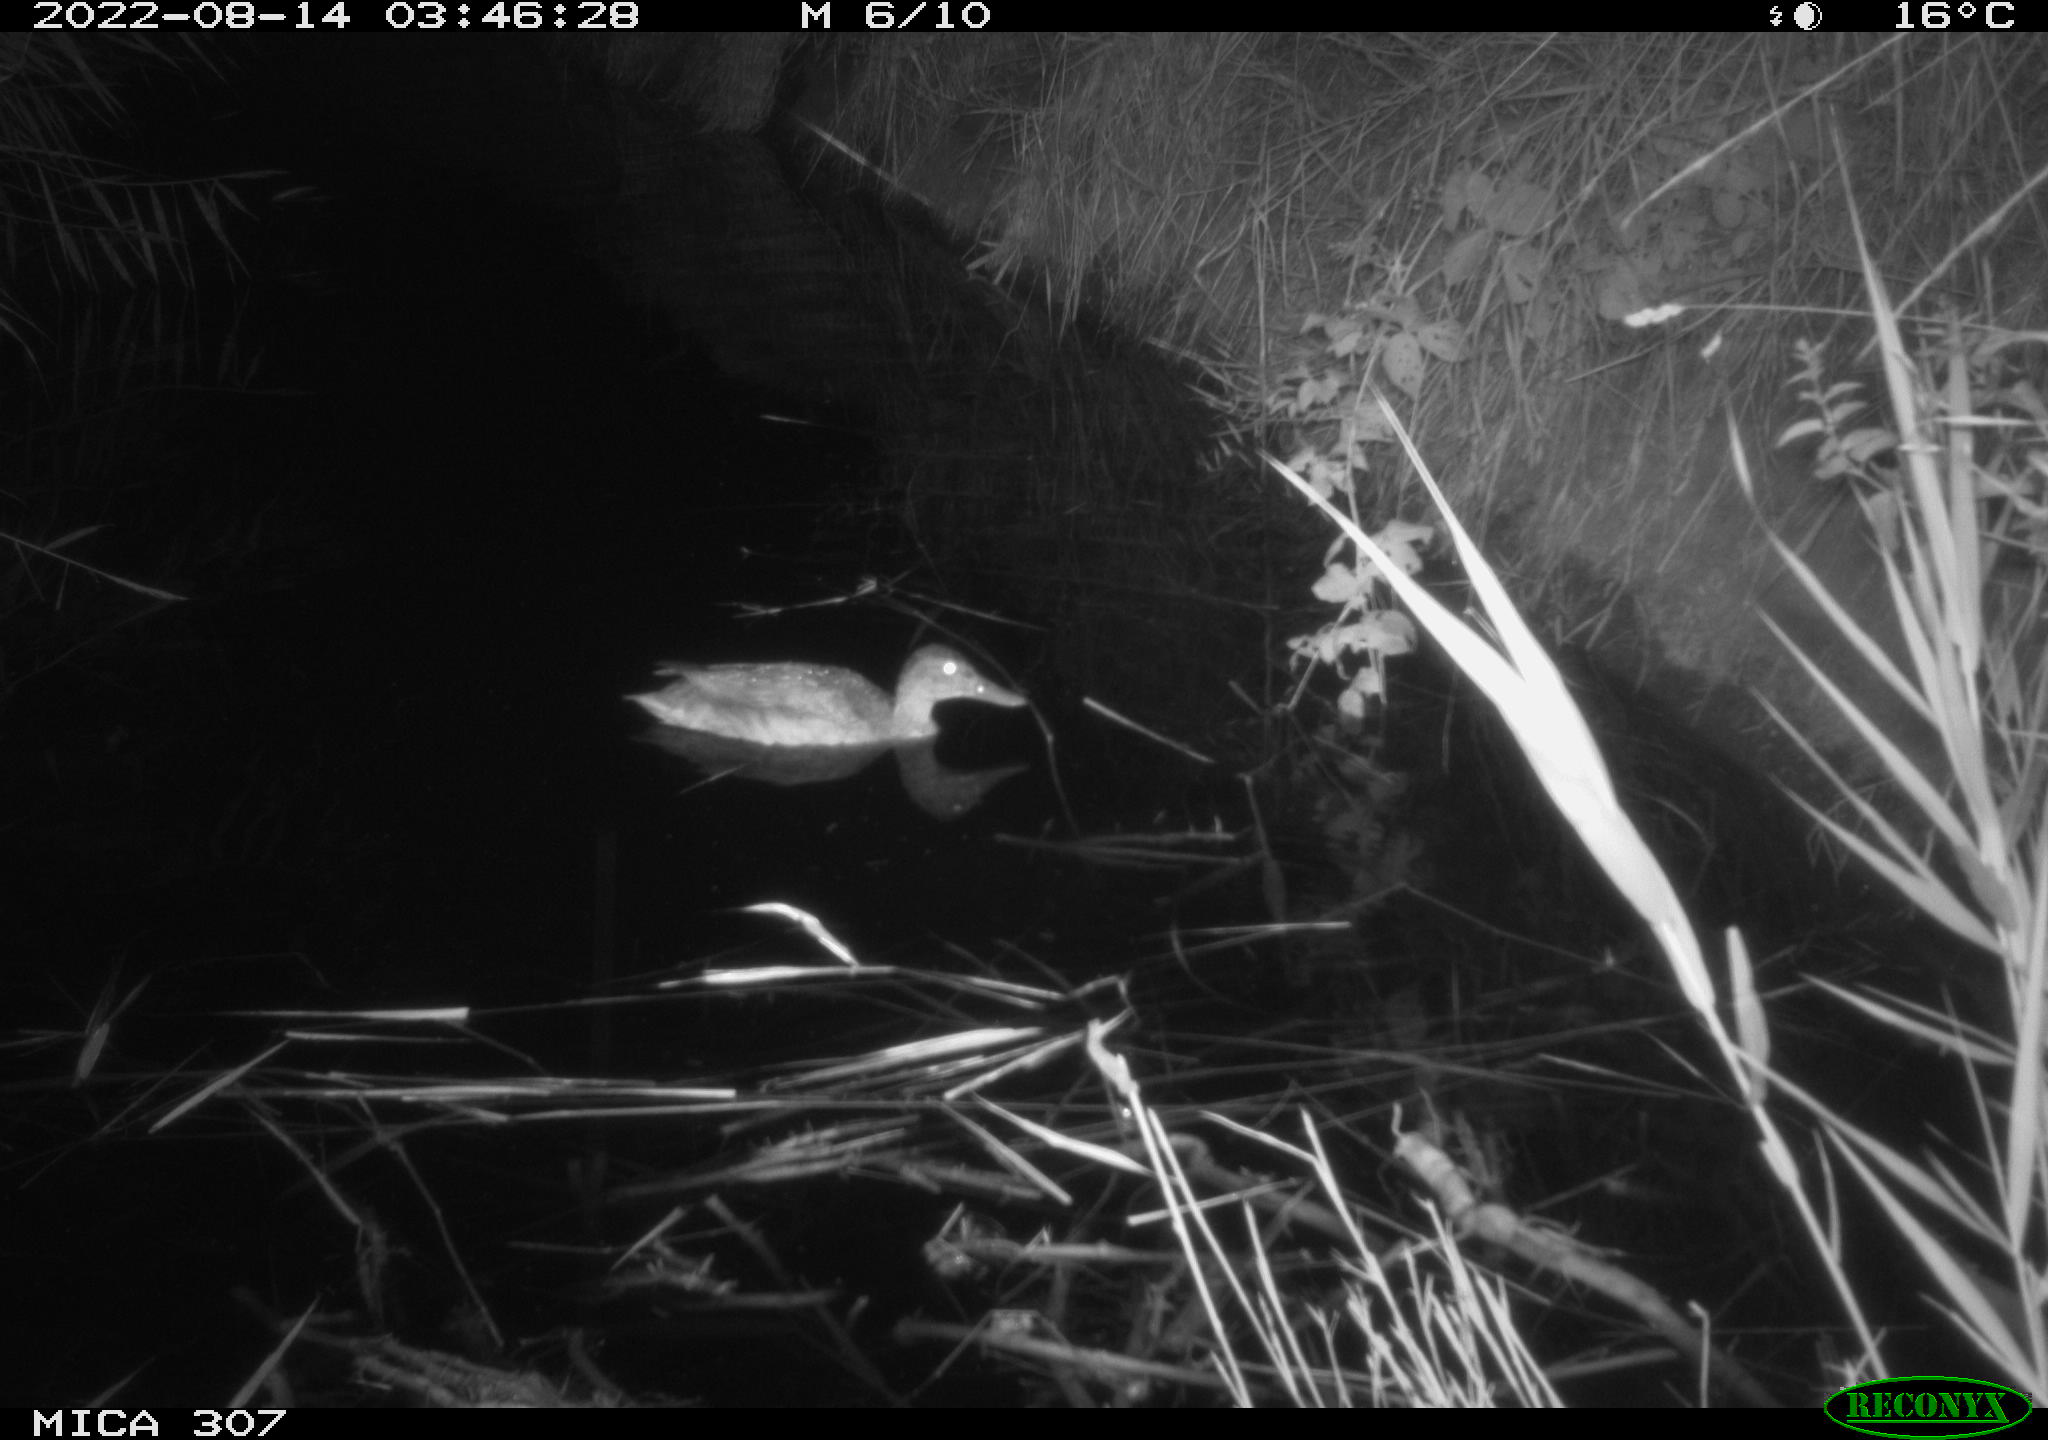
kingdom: Animalia
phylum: Chordata
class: Aves
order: Anseriformes
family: Anatidae
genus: Anas
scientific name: Anas platyrhynchos
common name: Mallard
